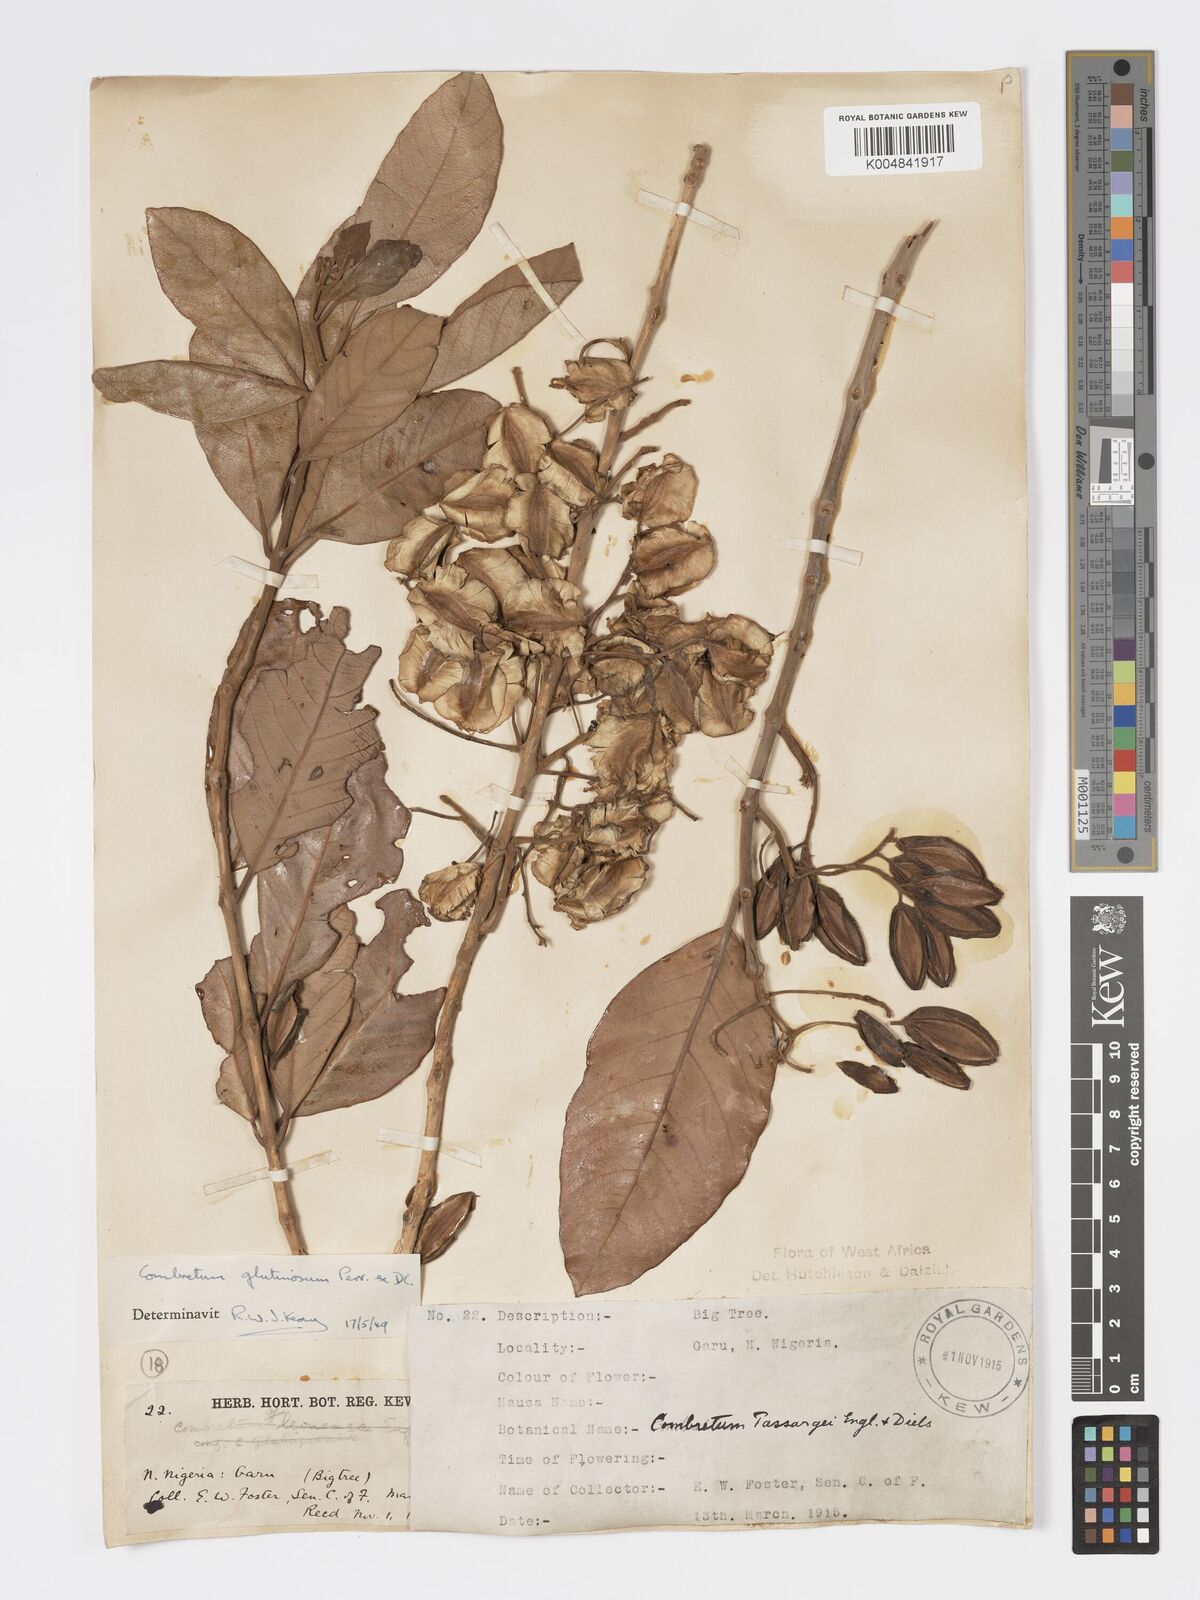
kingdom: Plantae
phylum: Tracheophyta
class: Magnoliopsida
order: Myrtales
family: Combretaceae
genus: Combretum
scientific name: Combretum
